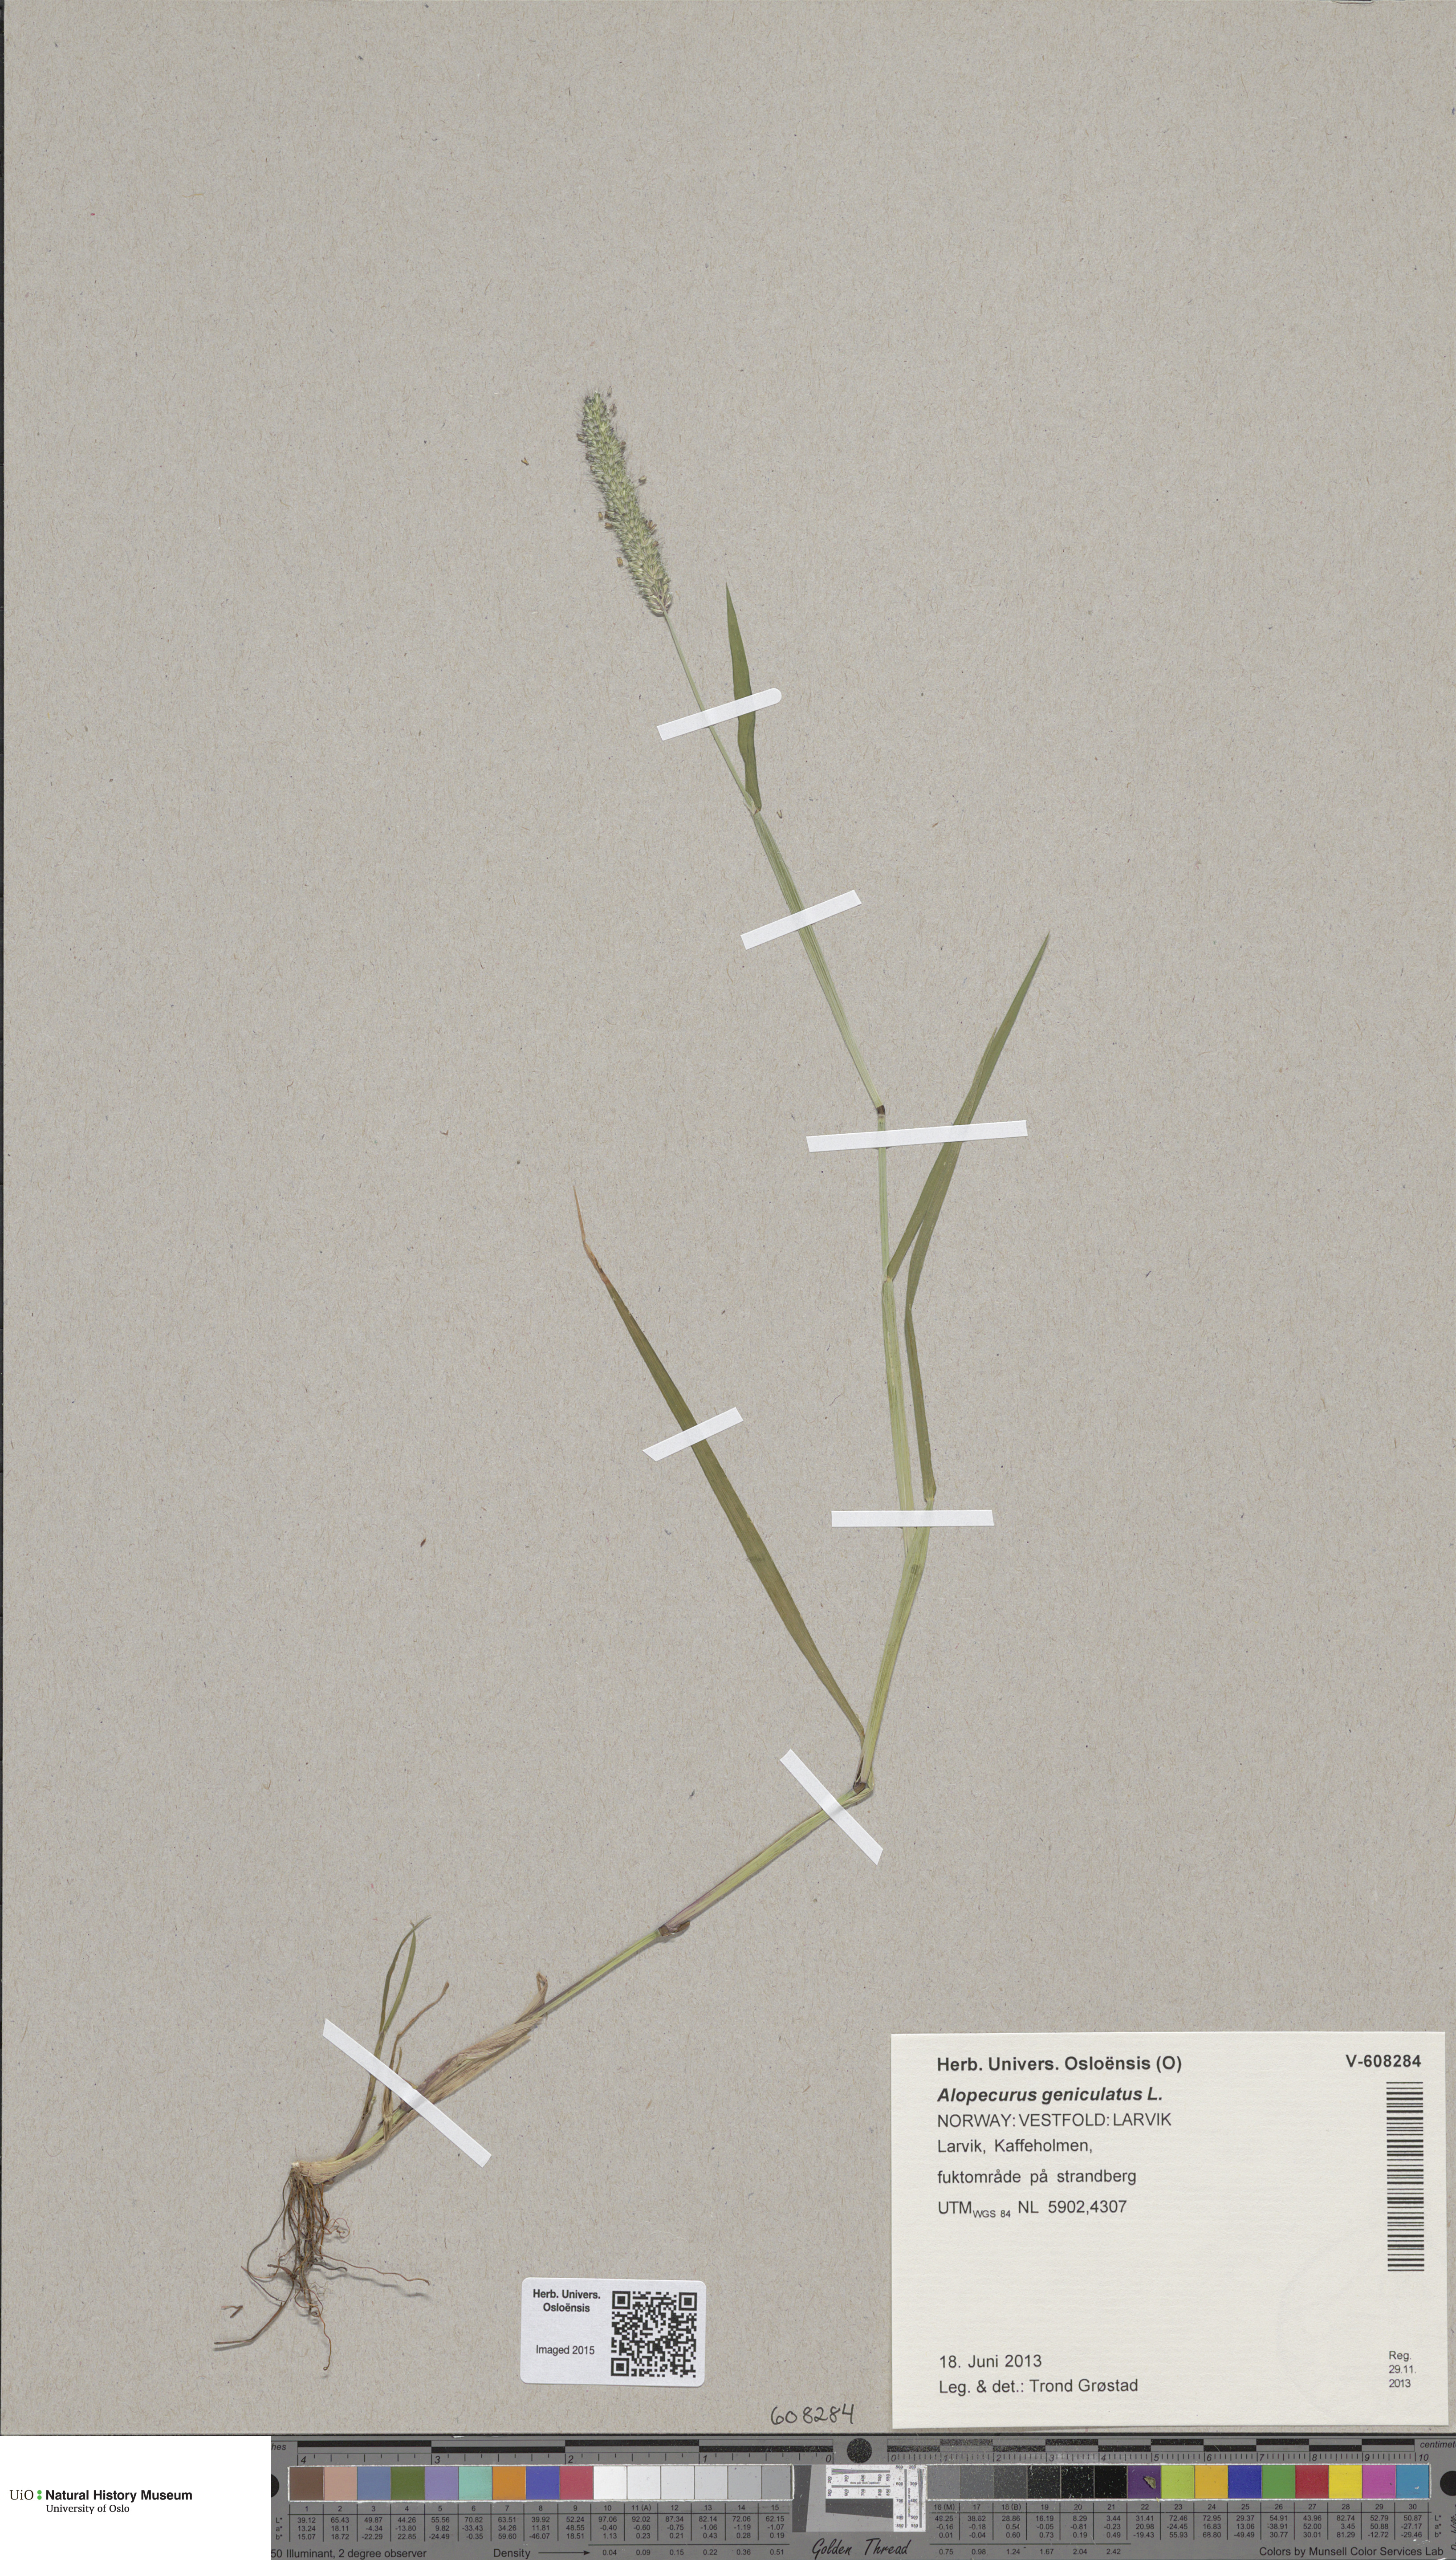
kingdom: Plantae
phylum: Tracheophyta
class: Liliopsida
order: Poales
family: Poaceae
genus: Alopecurus
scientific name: Alopecurus geniculatus
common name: Water foxtail
